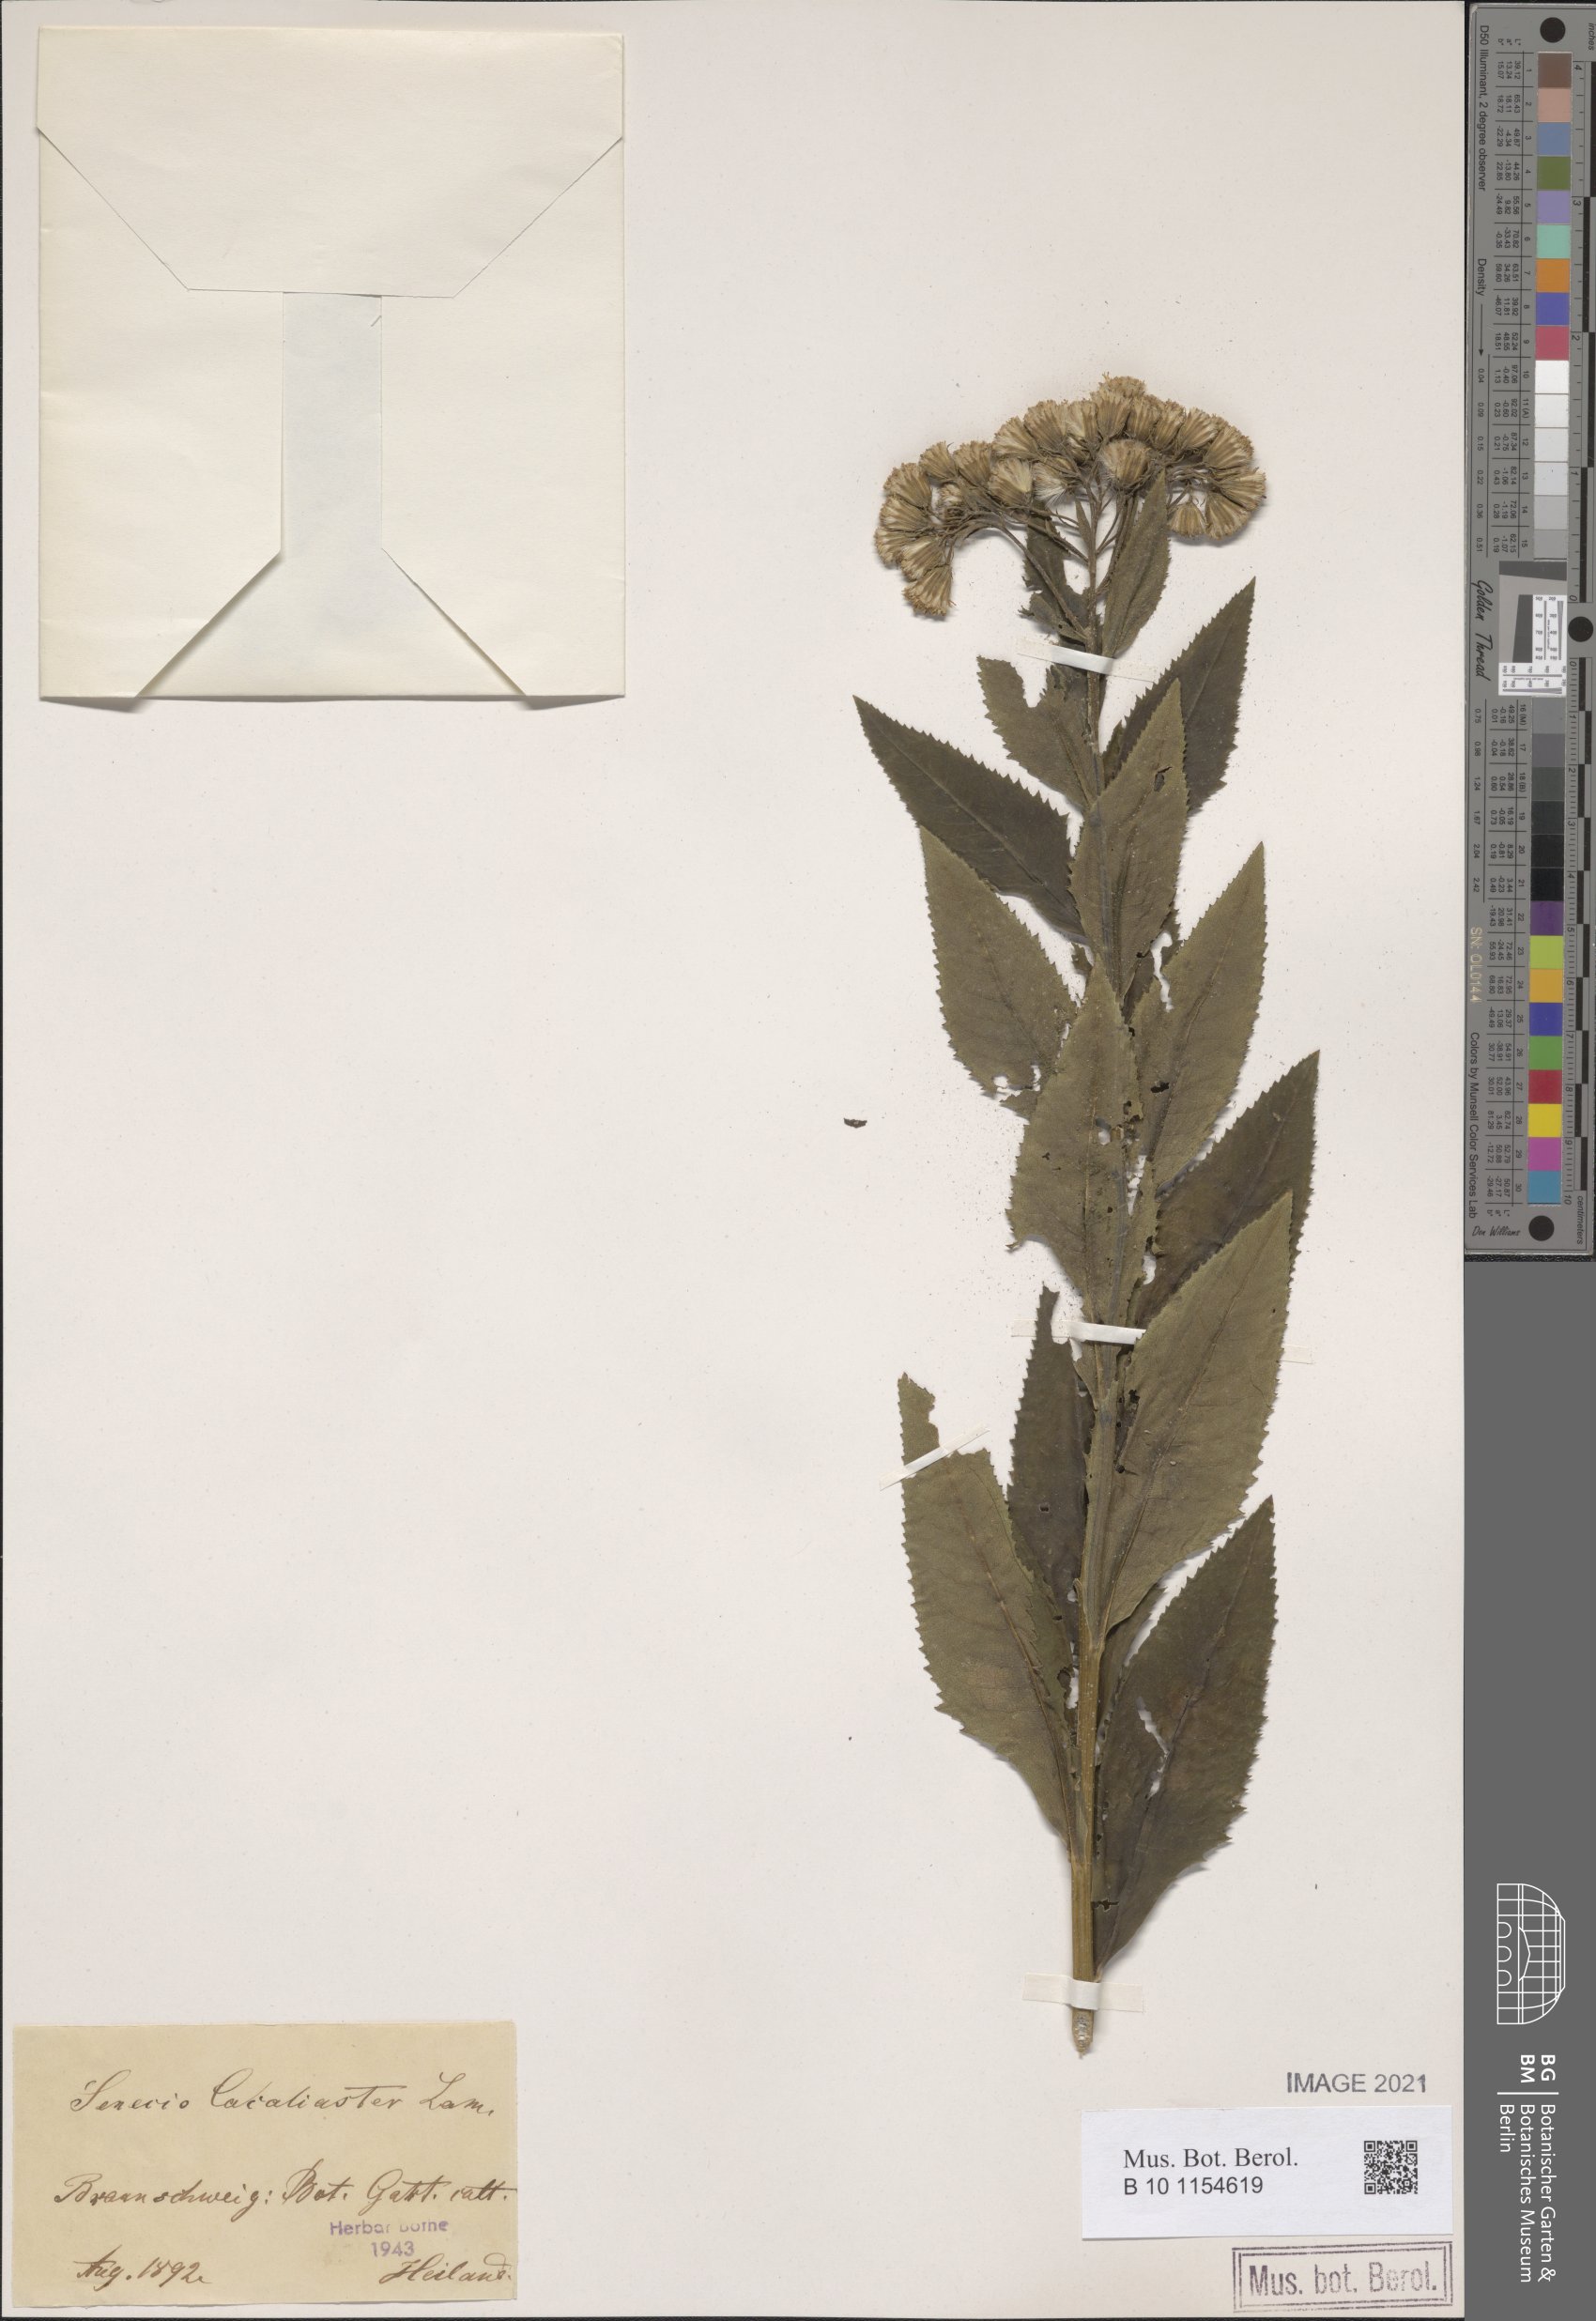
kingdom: Plantae
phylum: Tracheophyta
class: Magnoliopsida
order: Asterales
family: Asteraceae
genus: Senecio
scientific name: Senecio cacaliaster
